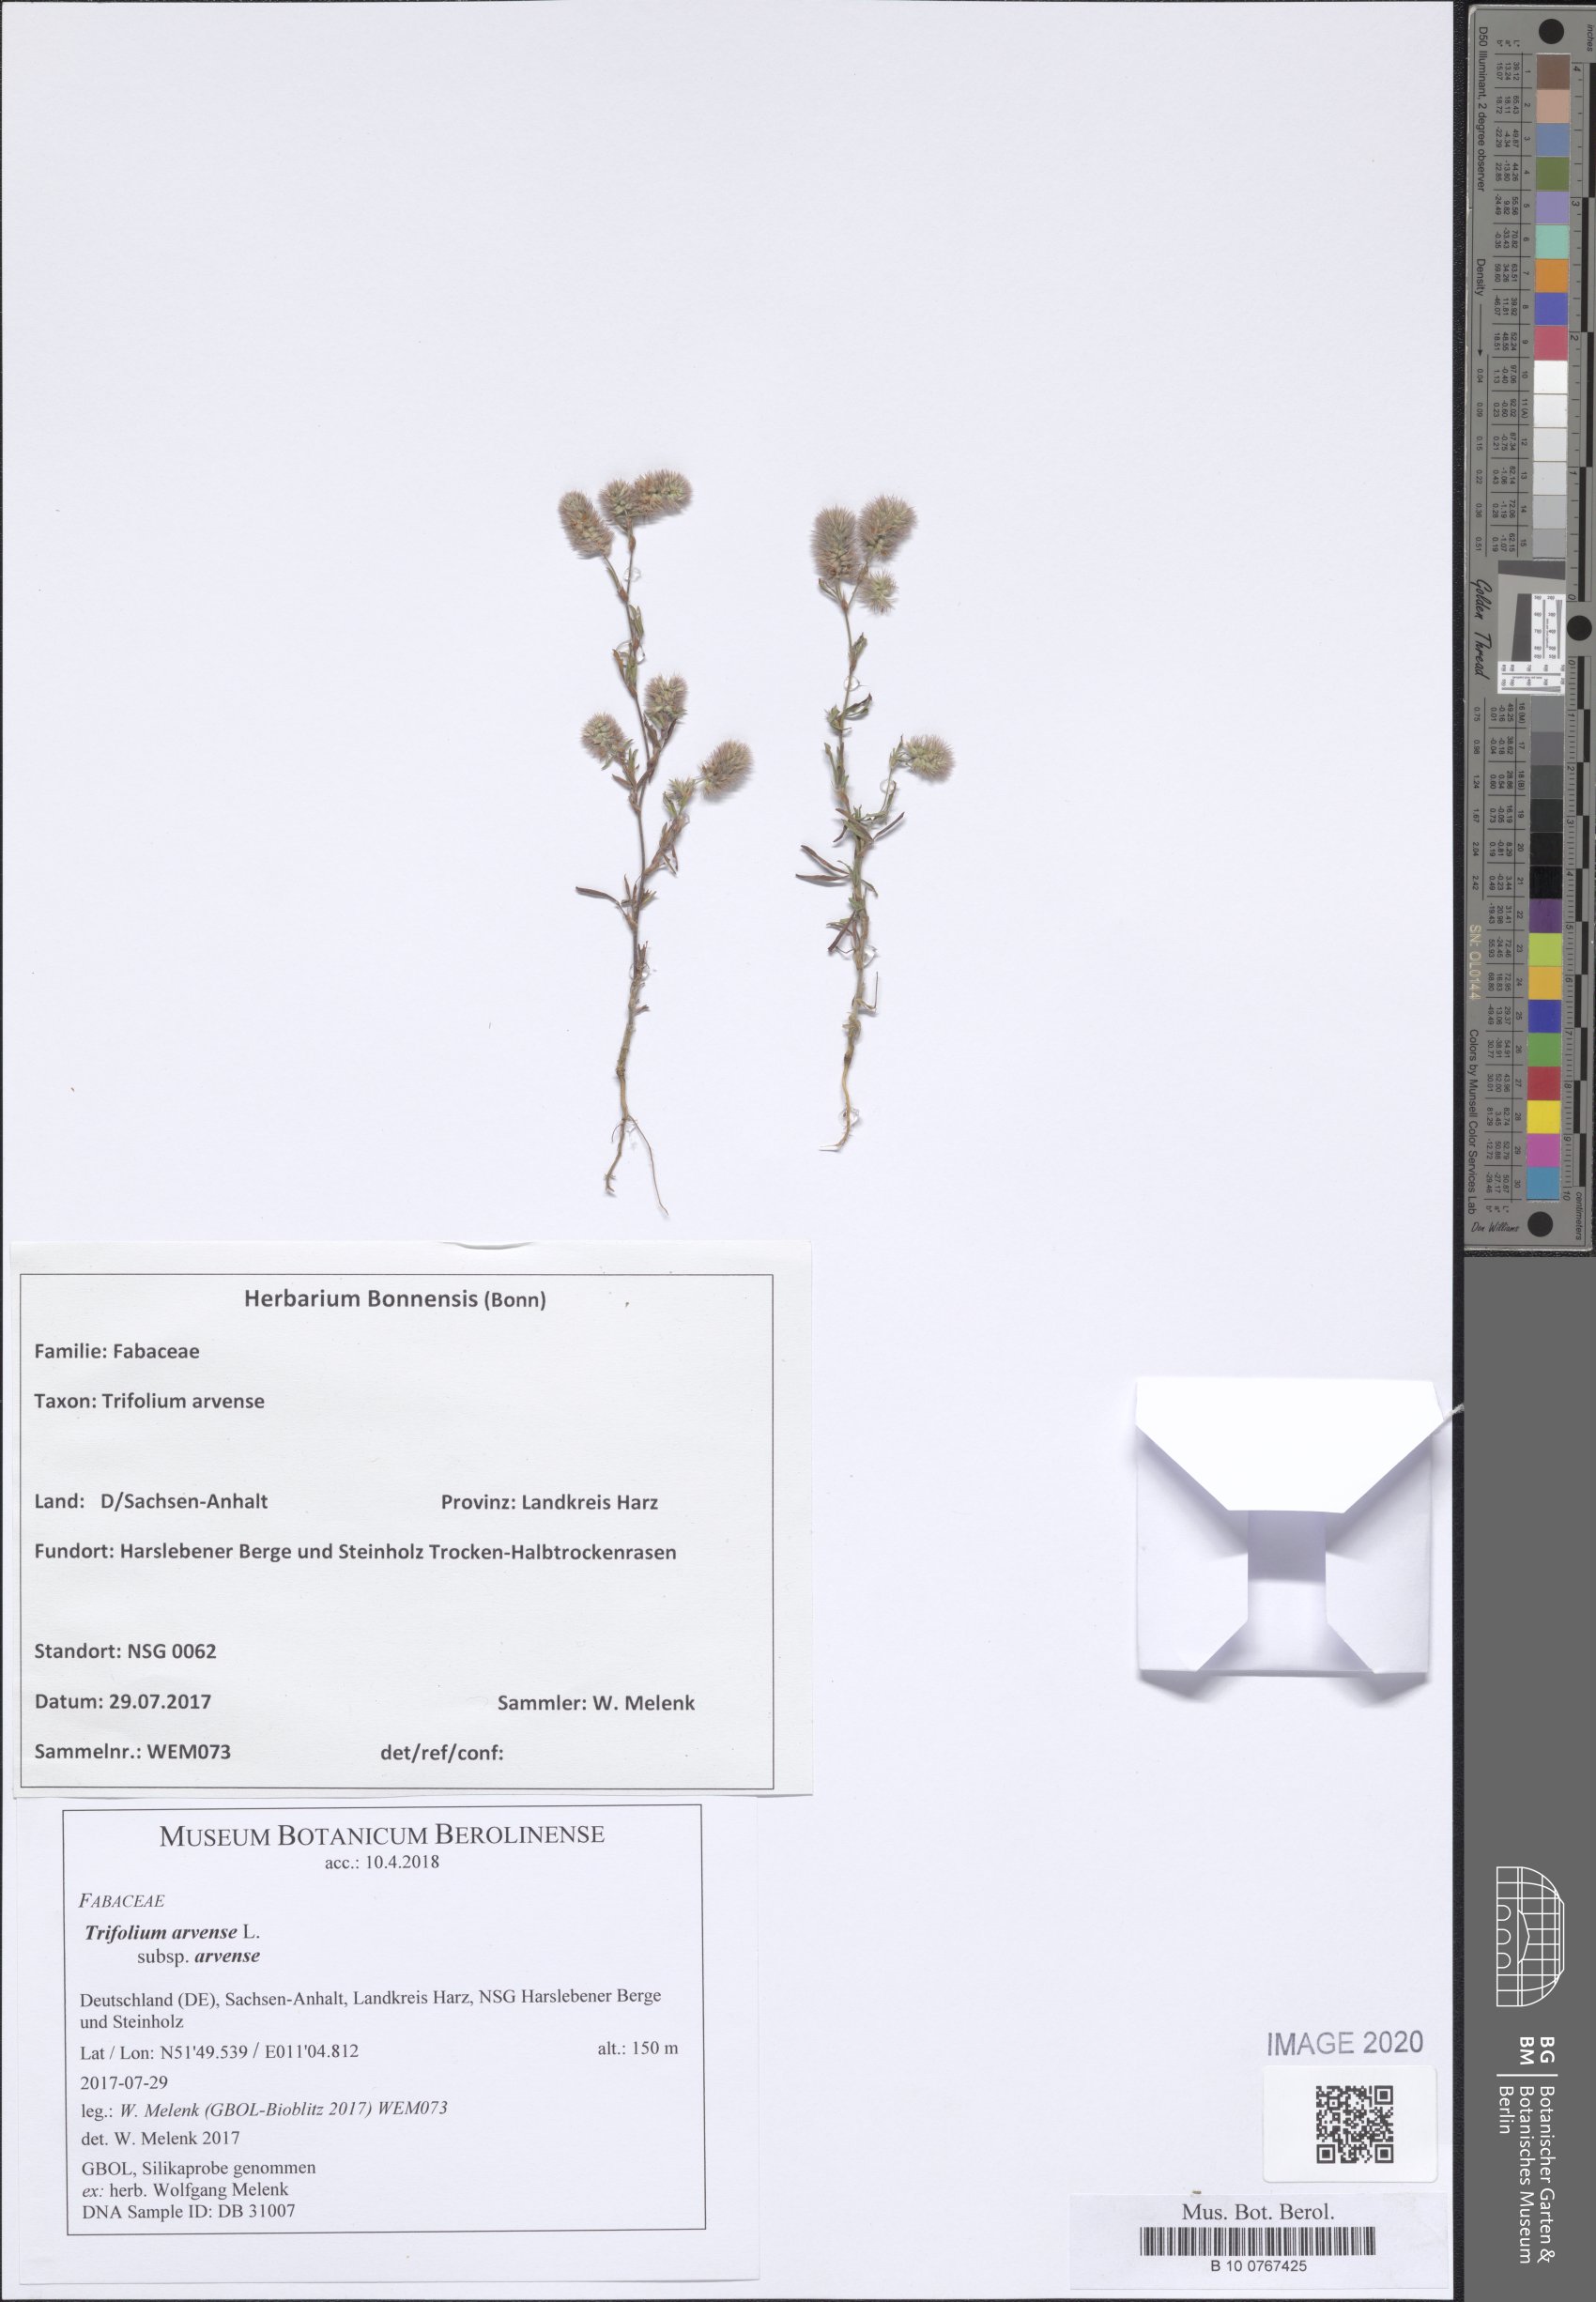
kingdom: Plantae
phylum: Tracheophyta
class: Magnoliopsida
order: Fabales
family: Fabaceae
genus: Trifolium
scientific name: Trifolium arvense
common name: Hare's-foot clover
